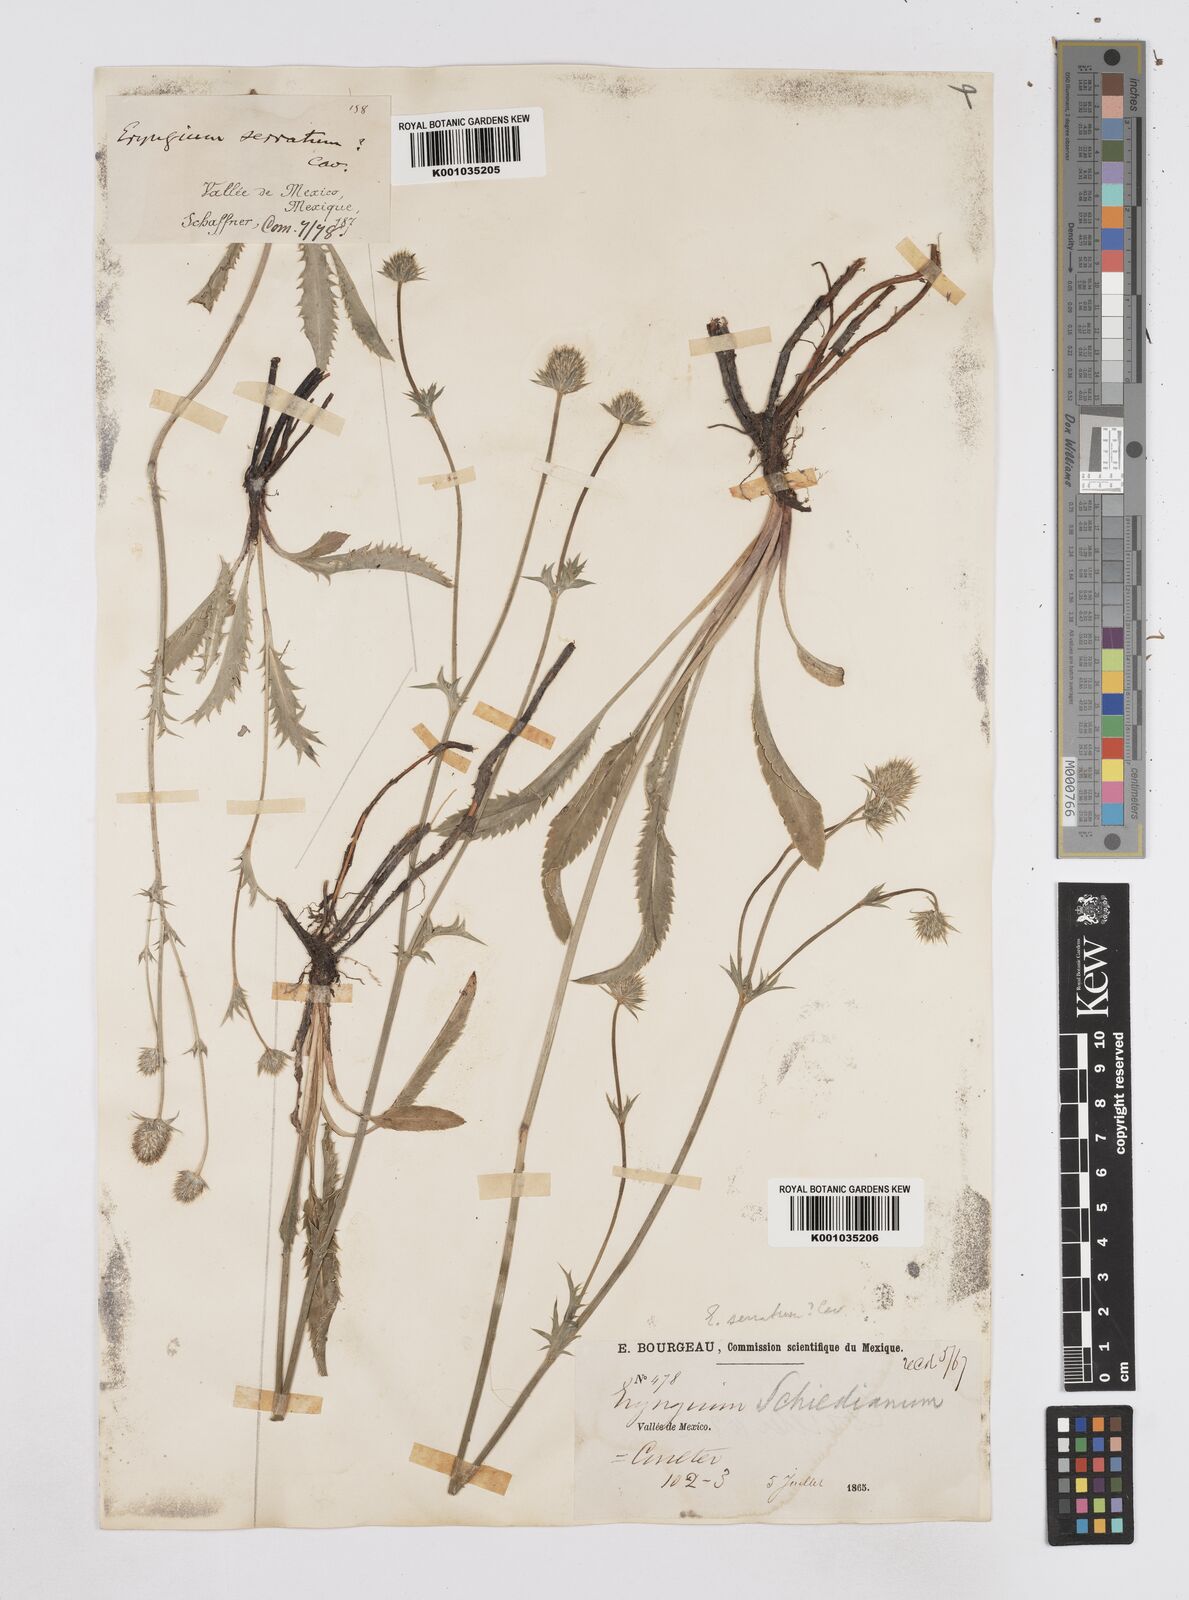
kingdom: Plantae
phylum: Tracheophyta
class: Magnoliopsida
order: Apiales
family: Apiaceae
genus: Eryngium
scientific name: Eryngium serratum
